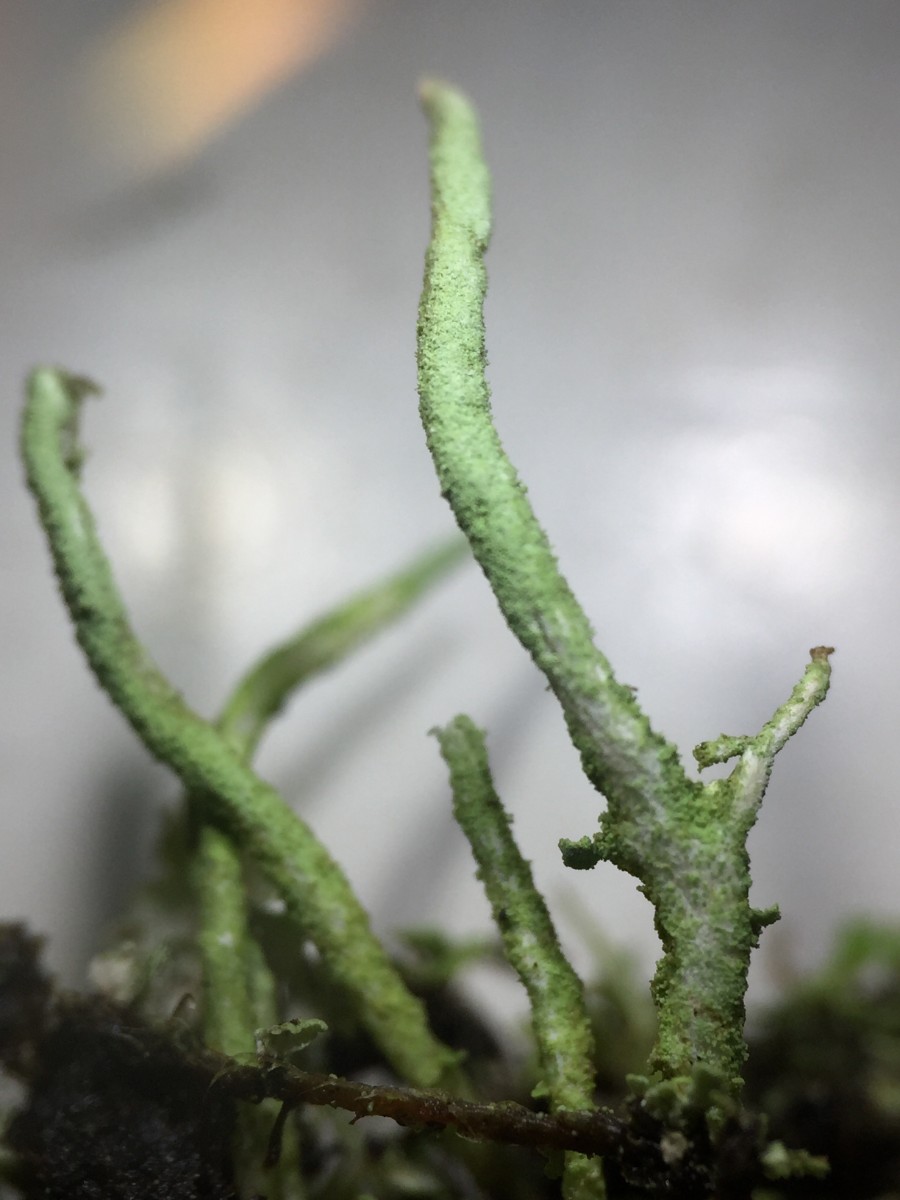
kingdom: Fungi
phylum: Ascomycota
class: Lecanoromycetes
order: Lecanorales
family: Cladoniaceae
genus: Cladonia
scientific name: Cladonia ochrochlora
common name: stød-bægerlav
